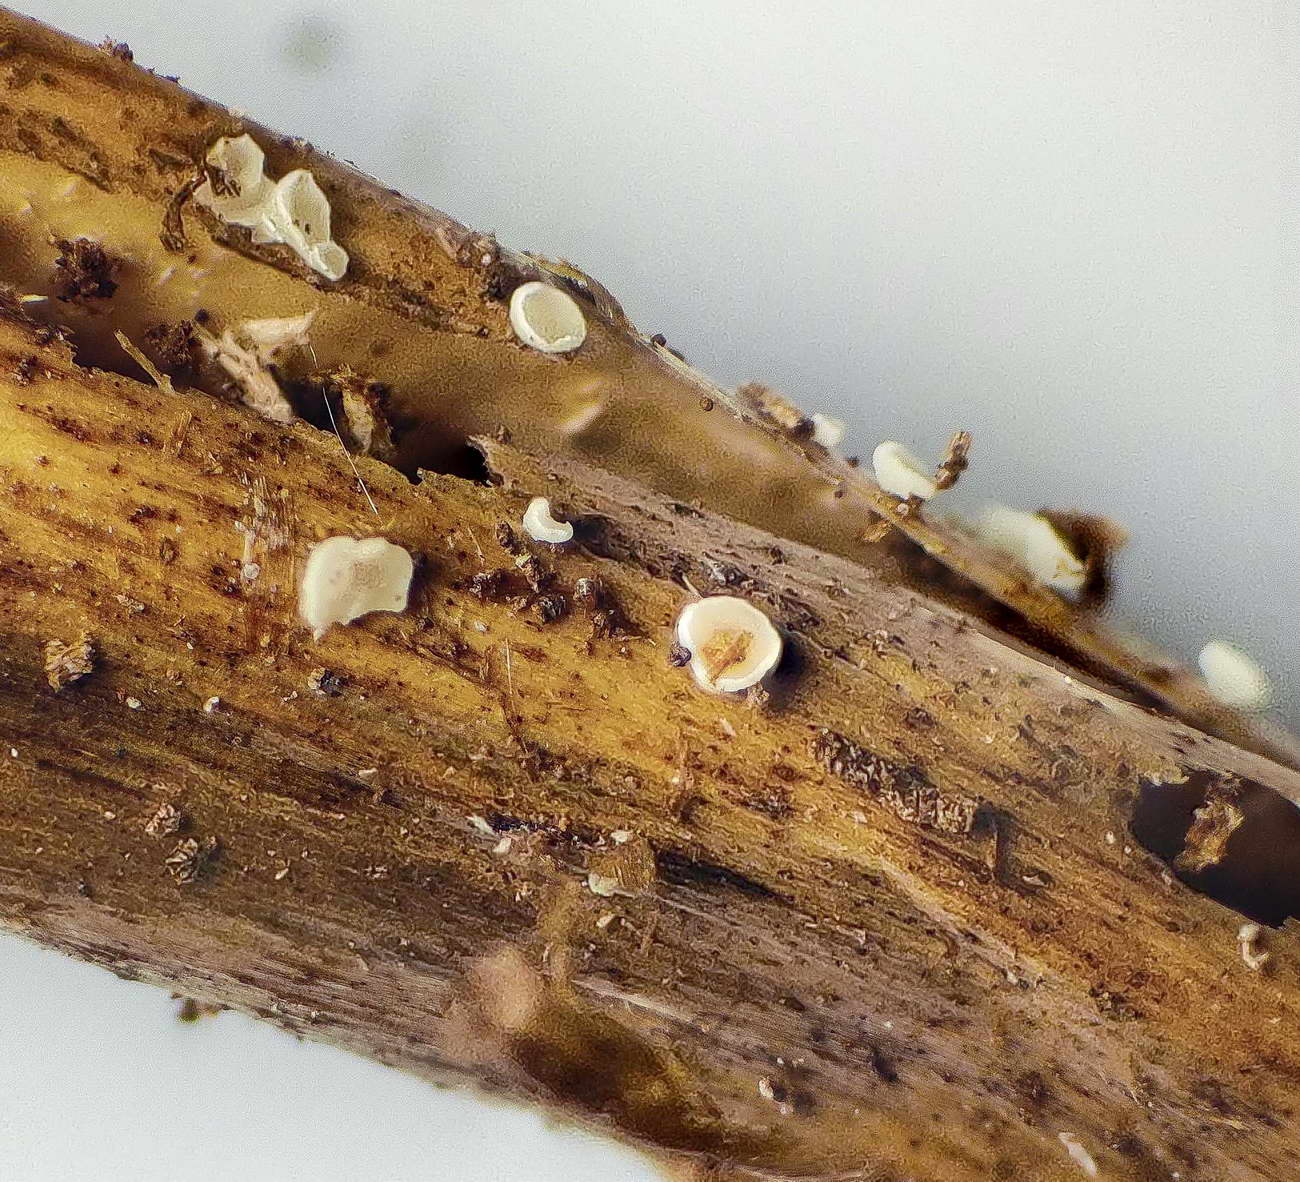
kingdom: Fungi
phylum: Ascomycota
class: Leotiomycetes
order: Helotiales
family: Pezizellaceae
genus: Psilachnum
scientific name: Psilachnum chrysostigmum
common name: gulnende hårskive
